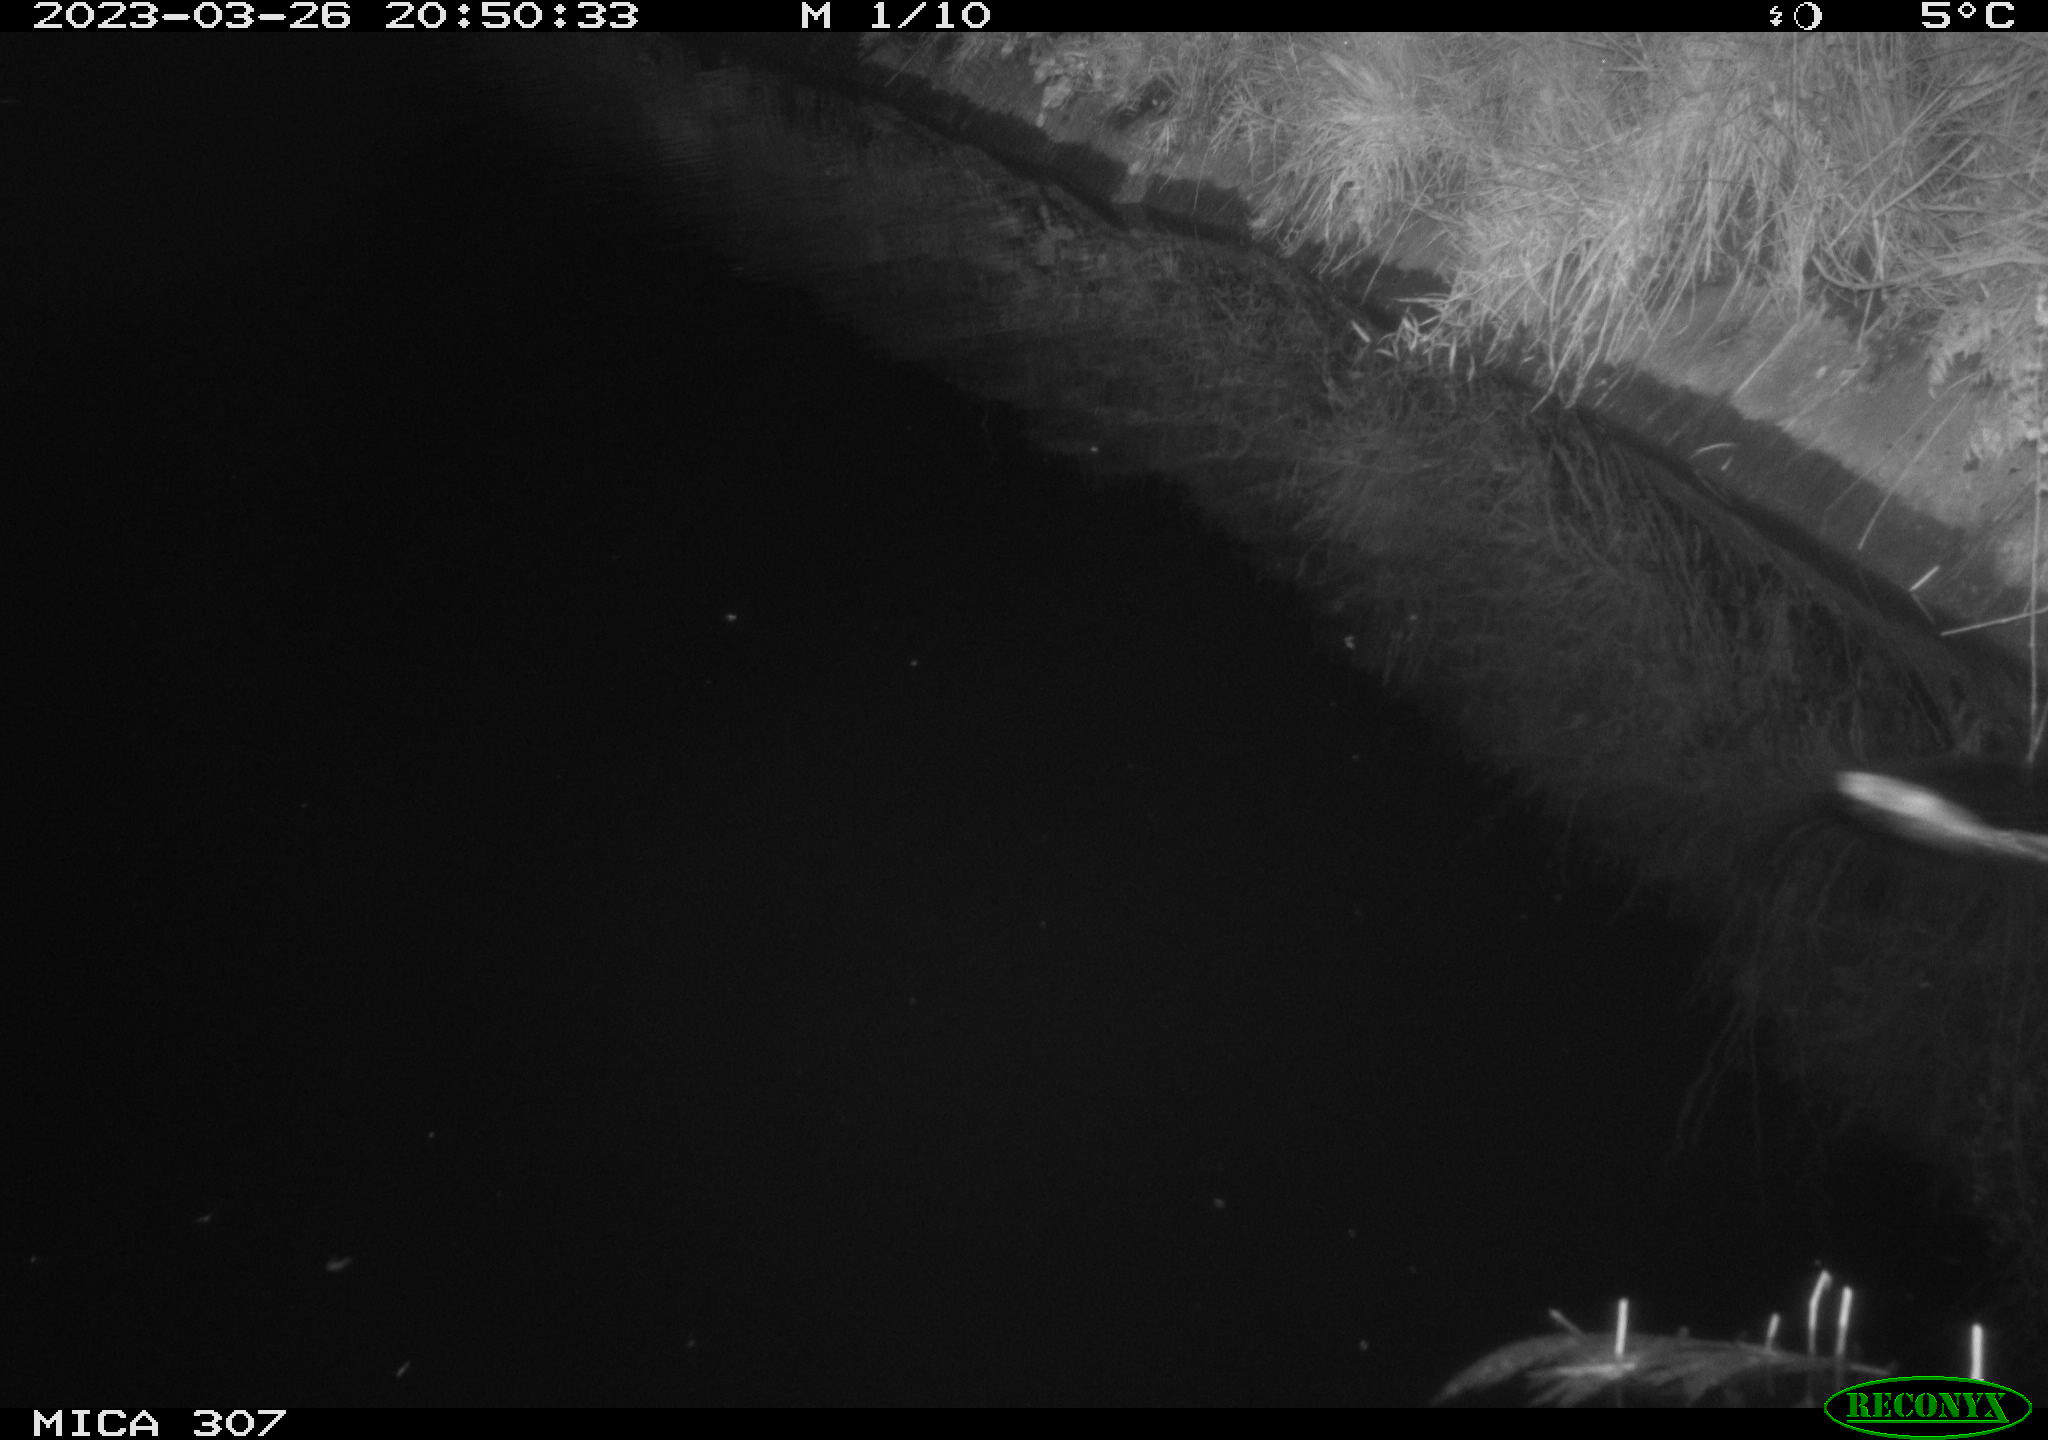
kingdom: Animalia
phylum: Chordata
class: Mammalia
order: Rodentia
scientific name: Rodentia
